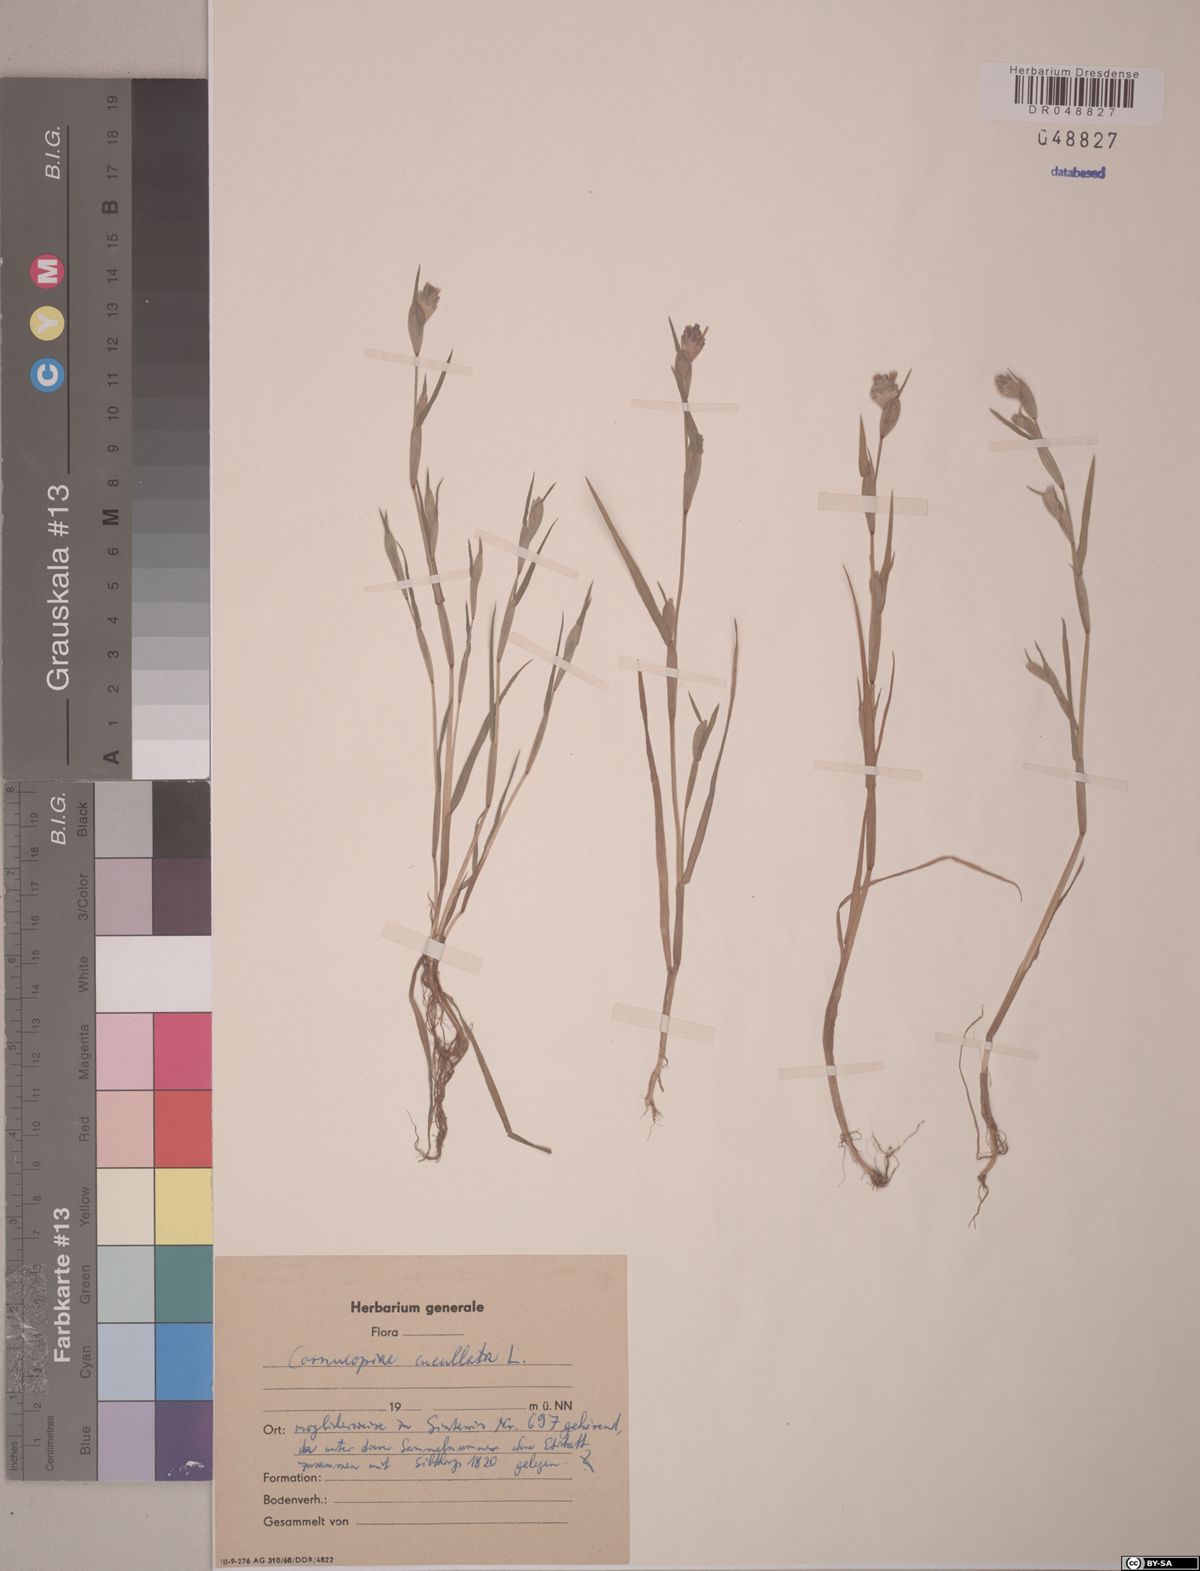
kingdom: Plantae
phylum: Tracheophyta
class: Liliopsida
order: Poales
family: Poaceae
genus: Cornucopiae
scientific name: Cornucopiae cucullatum
